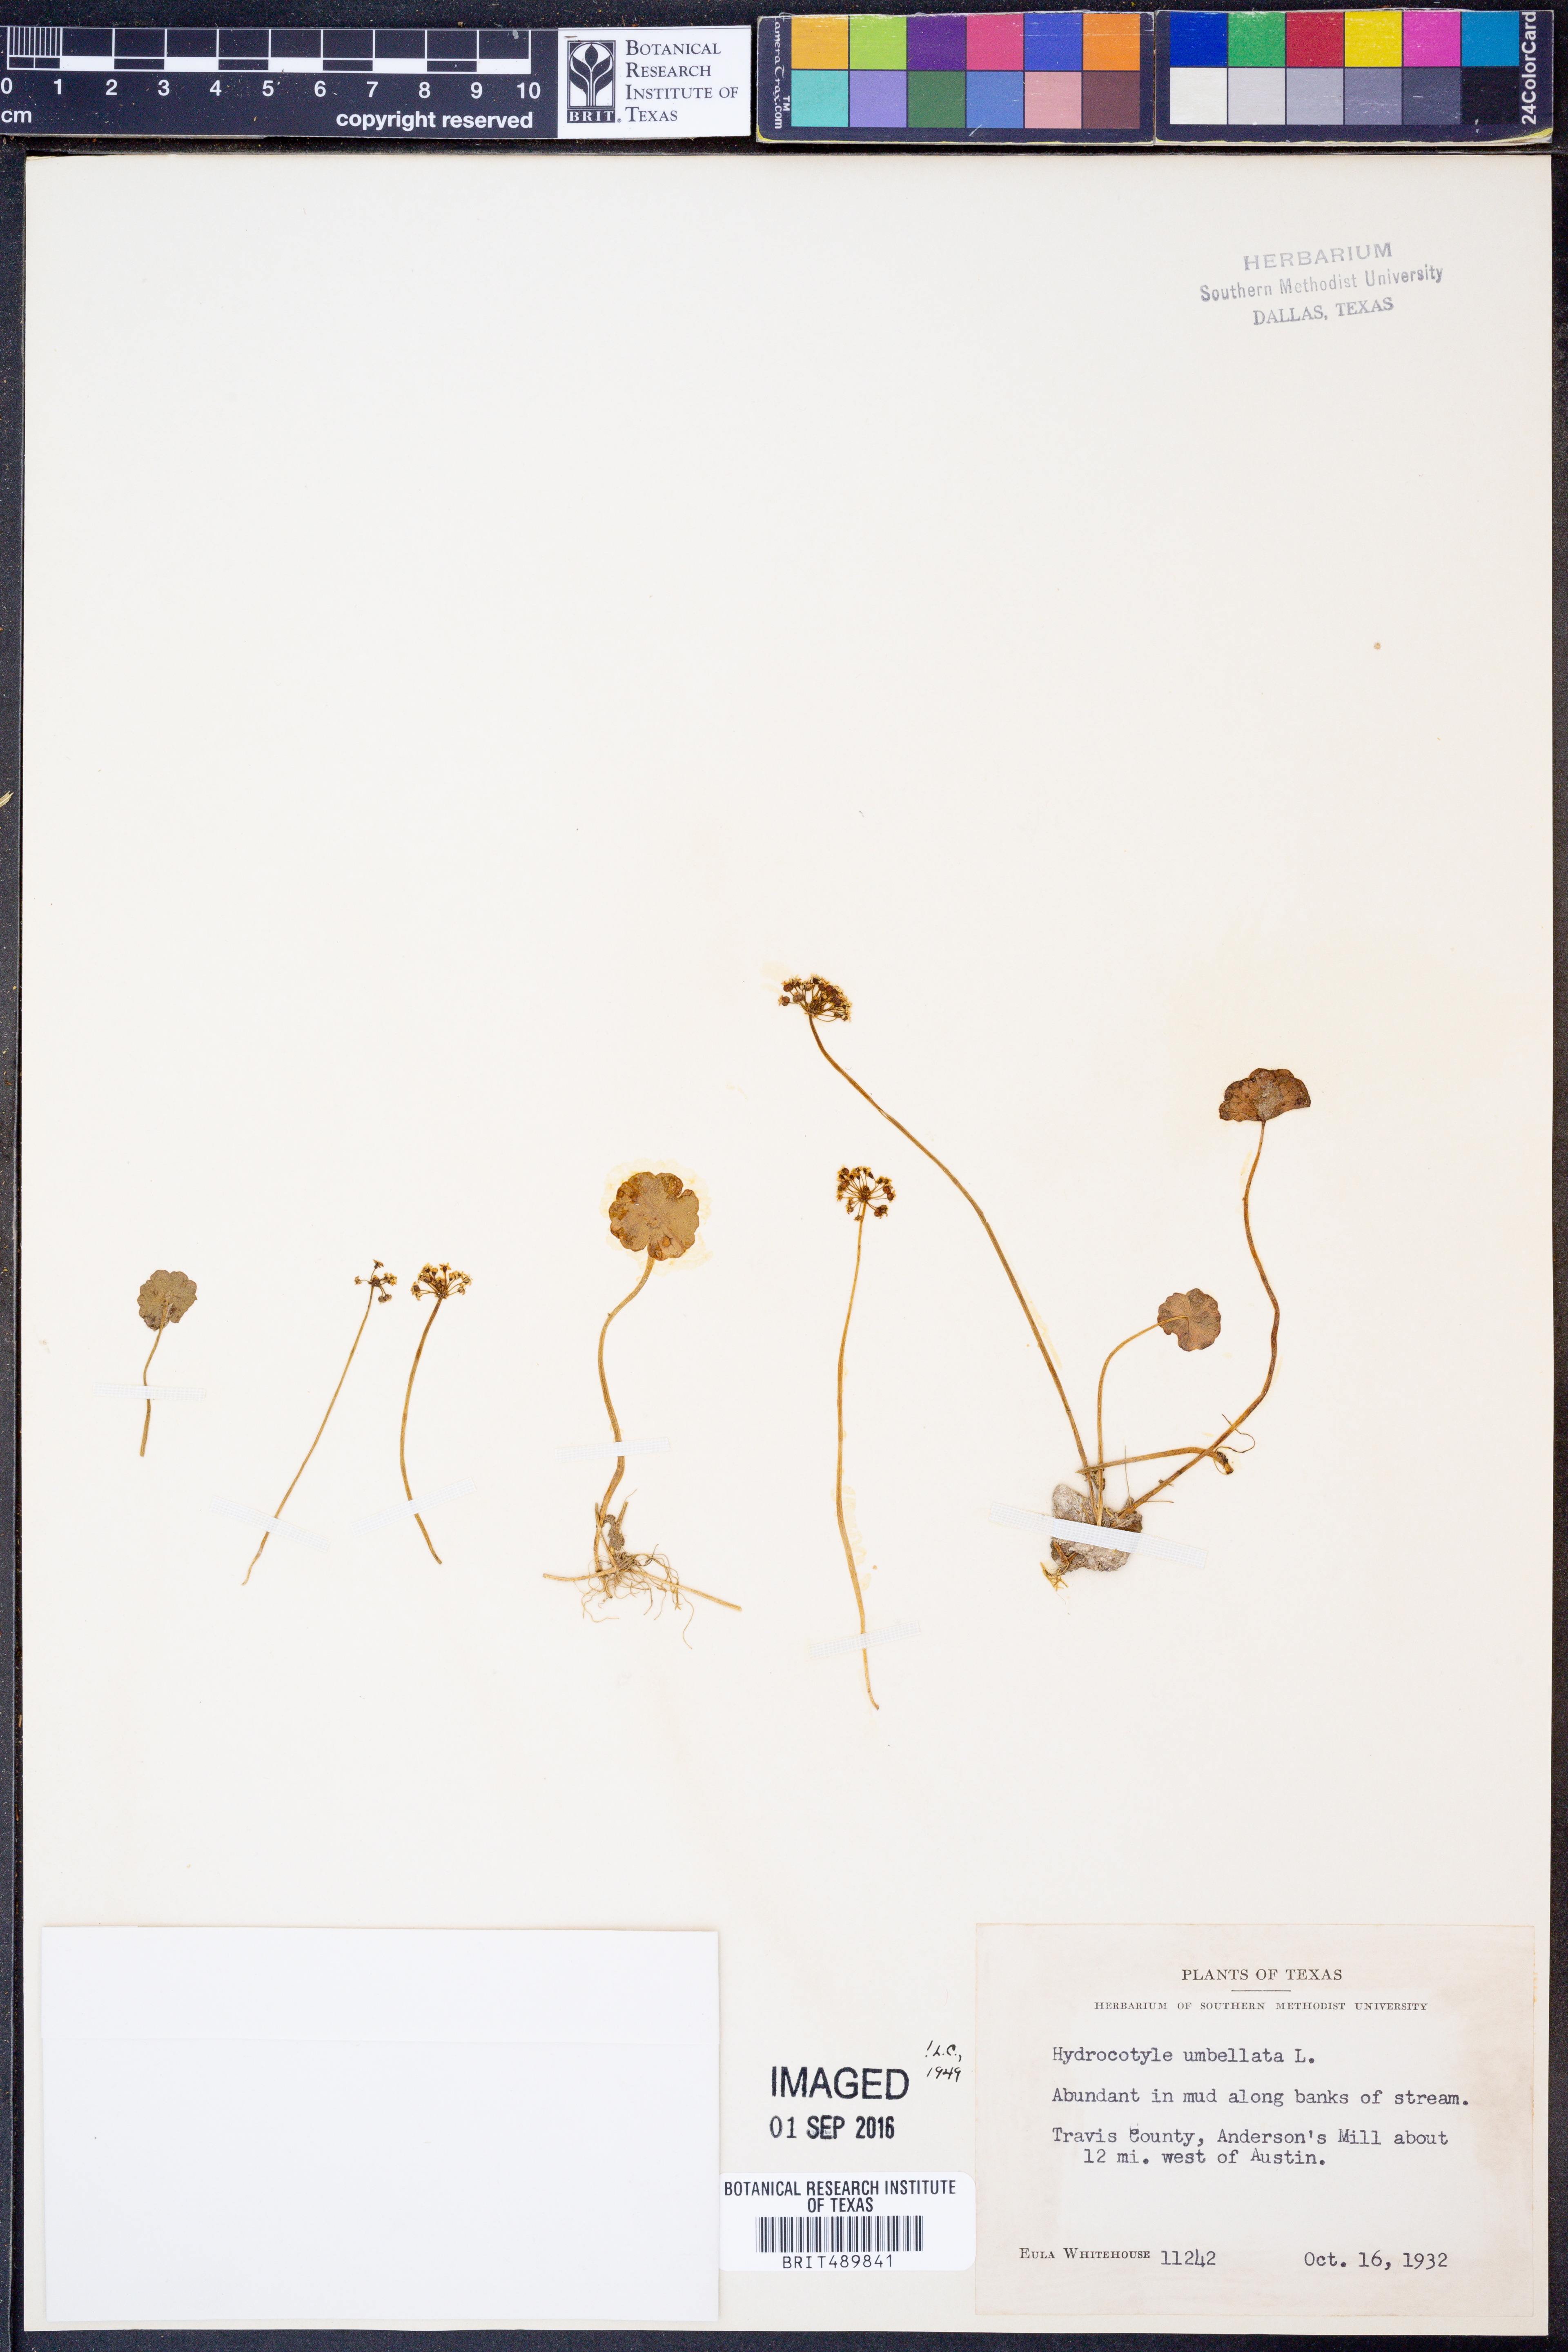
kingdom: Plantae
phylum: Tracheophyta
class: Magnoliopsida
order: Apiales
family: Araliaceae
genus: Hydrocotyle
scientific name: Hydrocotyle umbellata
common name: Water pennywort
